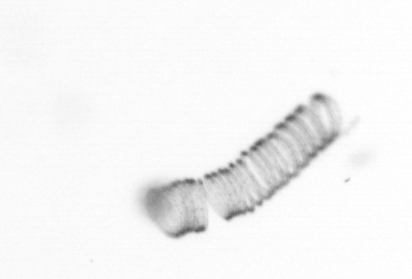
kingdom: Chromista
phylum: Ochrophyta
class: Bacillariophyceae
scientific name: Bacillariophyceae
